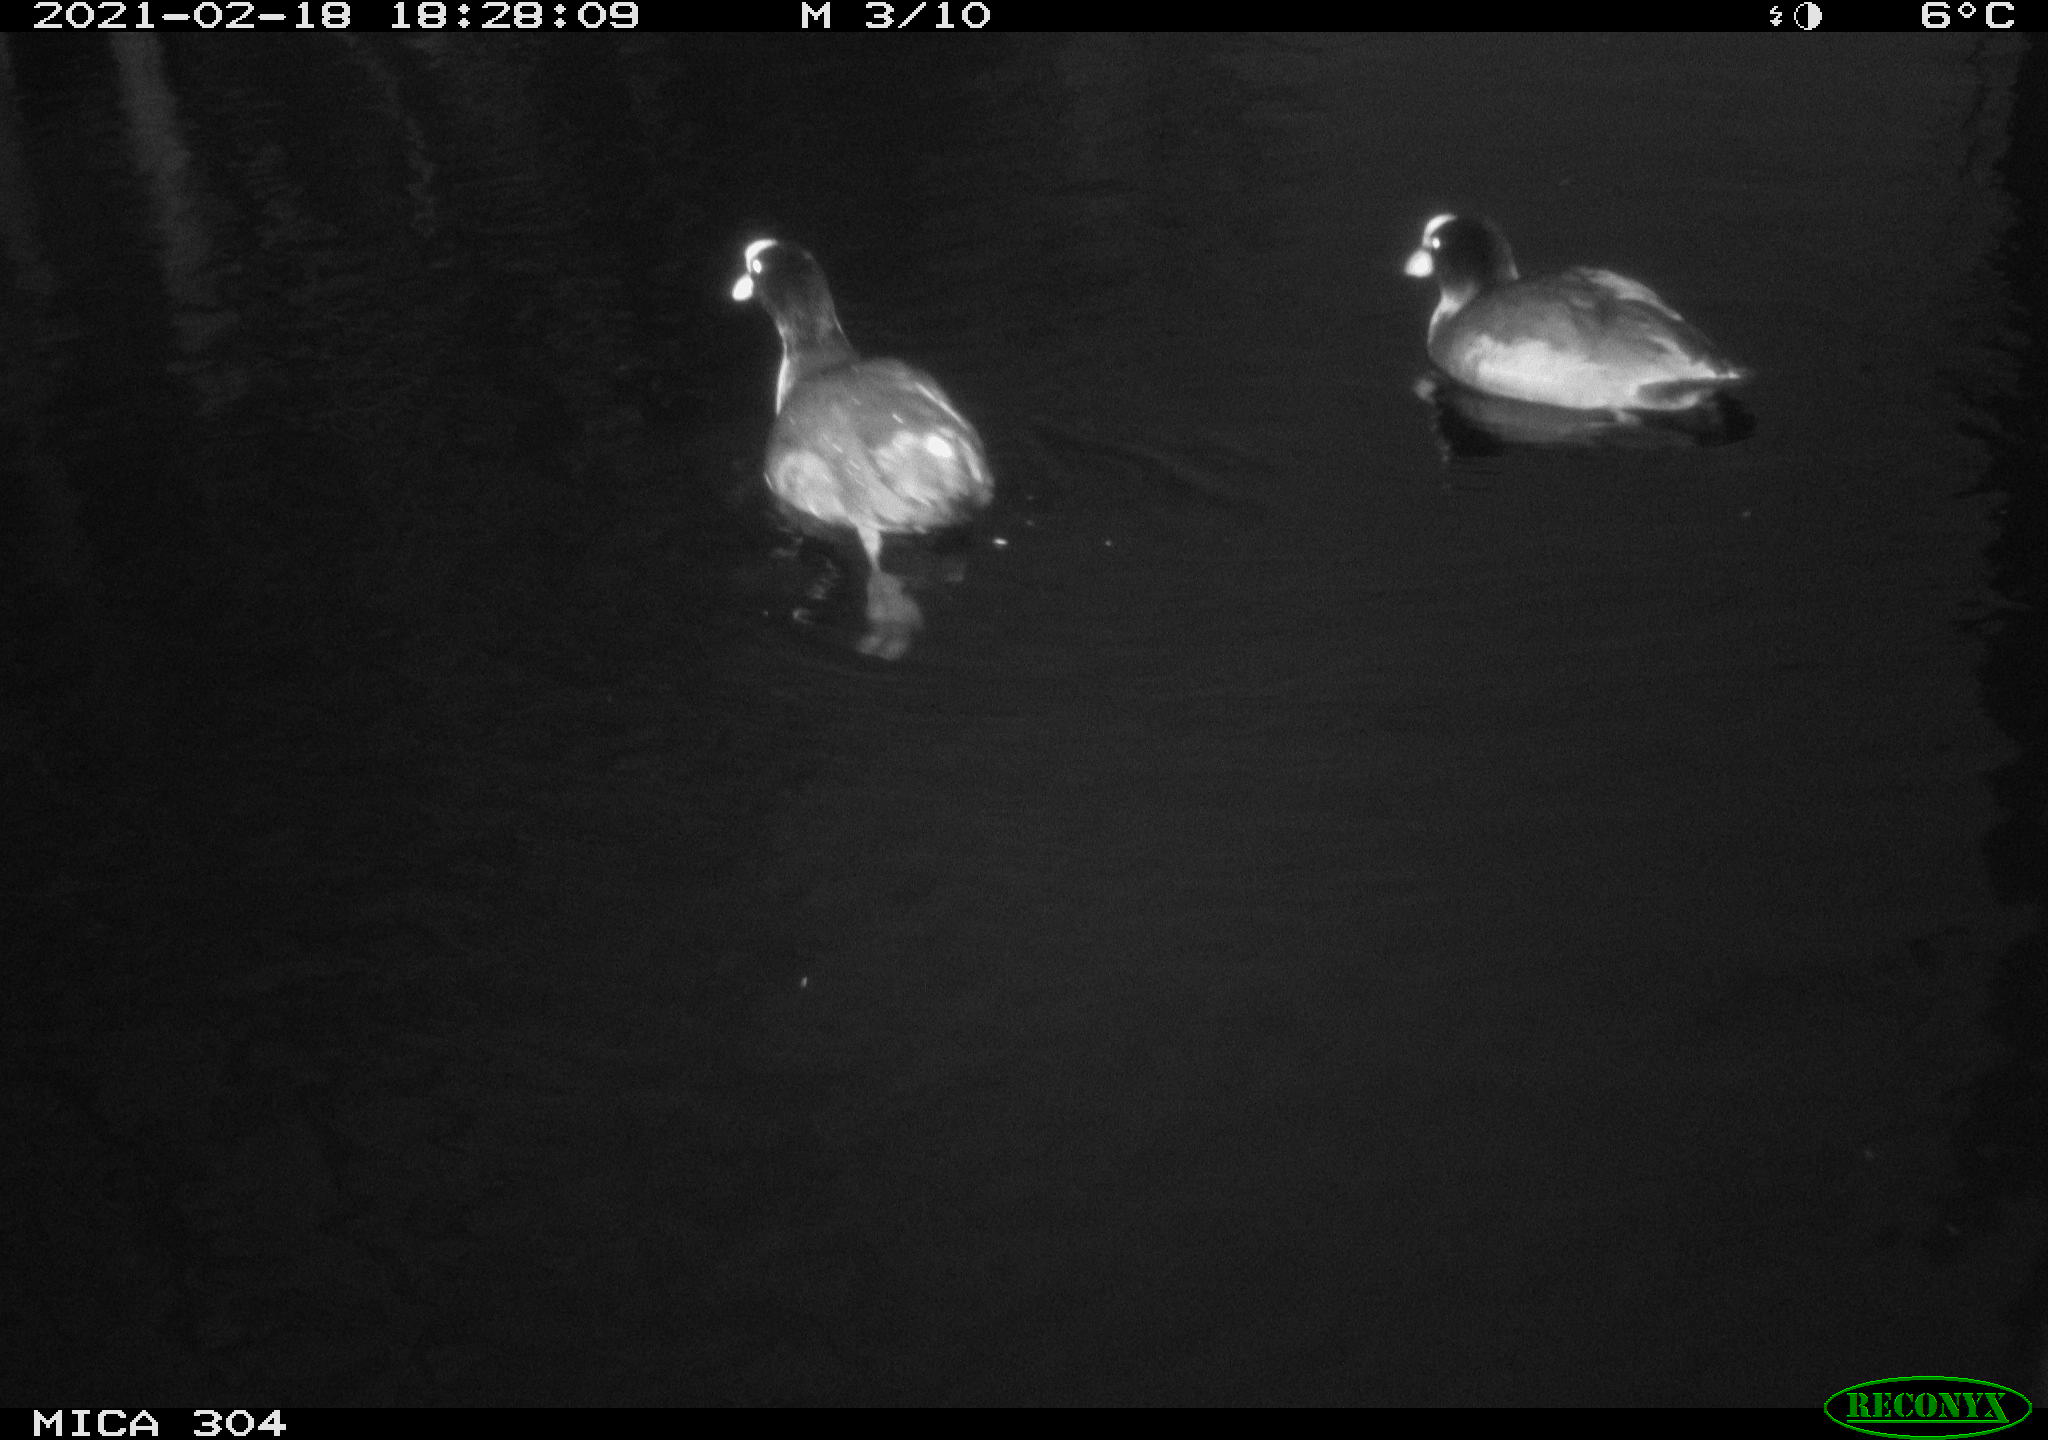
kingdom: Animalia
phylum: Chordata
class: Aves
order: Gruiformes
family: Rallidae
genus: Fulica
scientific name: Fulica atra
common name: Eurasian coot
